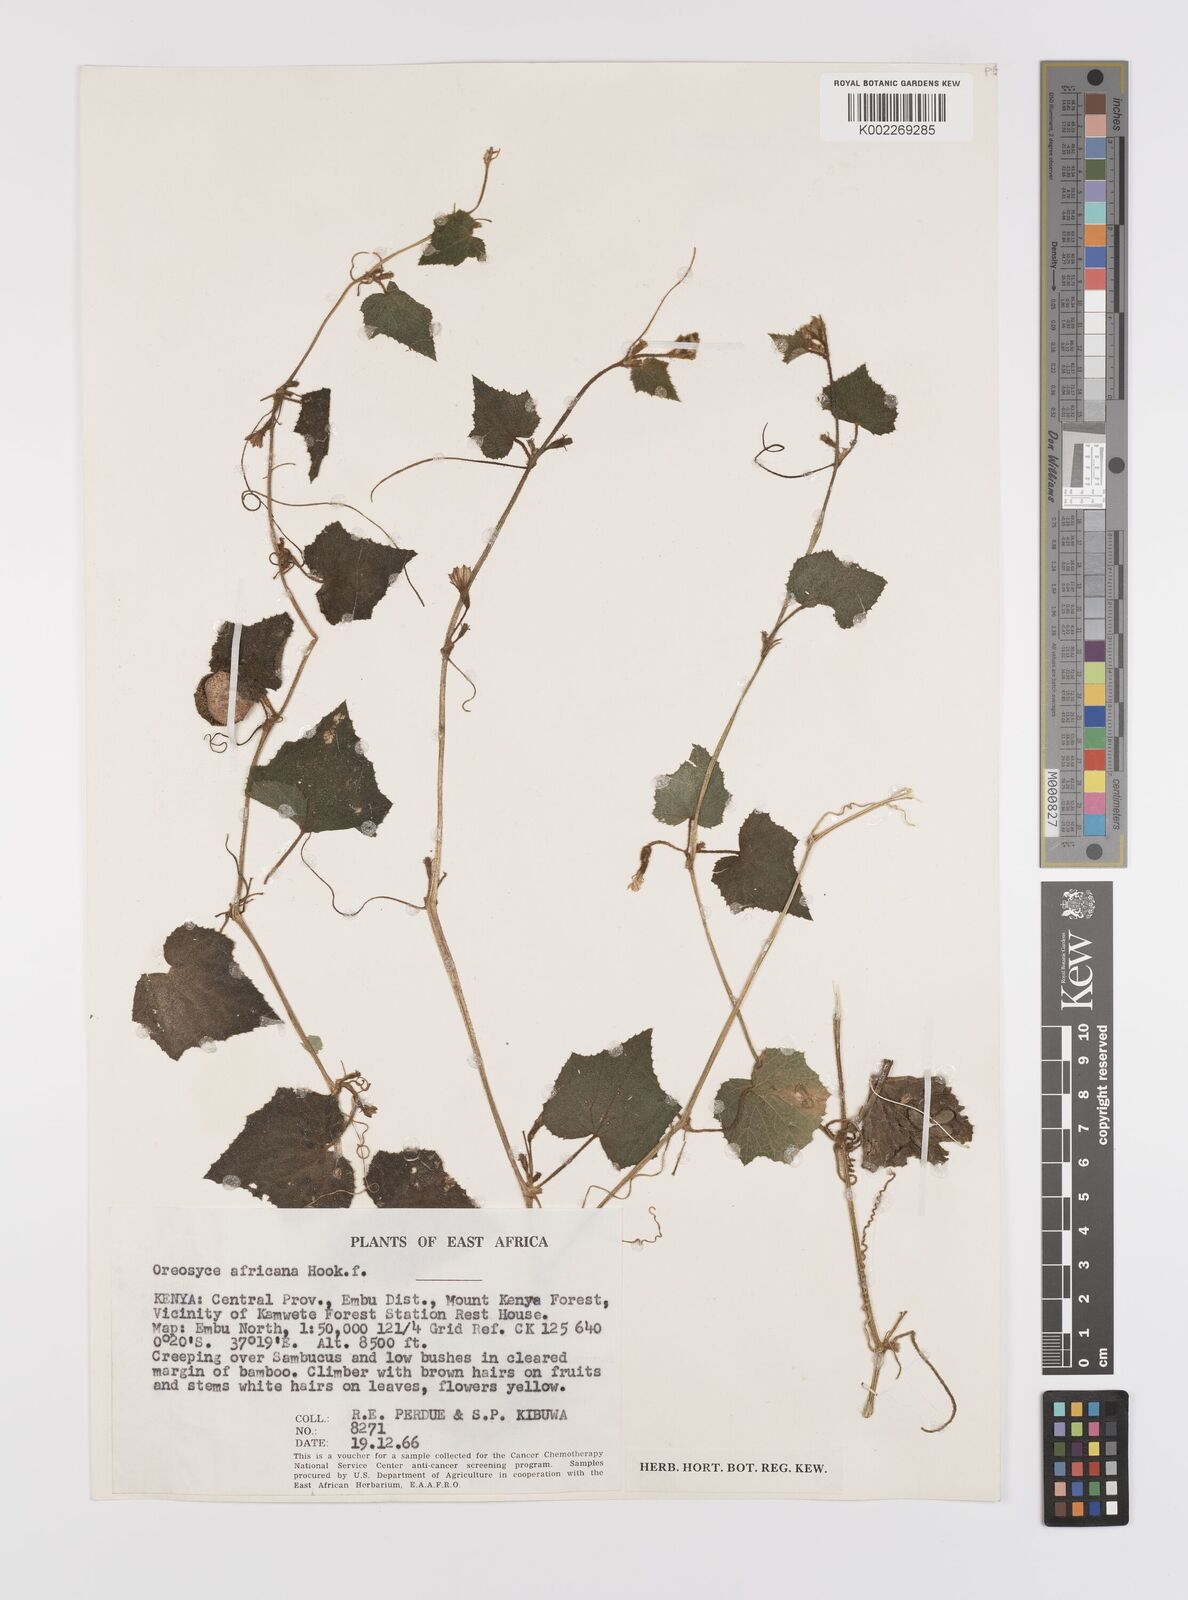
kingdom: Plantae
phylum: Tracheophyta
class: Magnoliopsida
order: Cucurbitales
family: Cucurbitaceae
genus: Cucumis
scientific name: Cucumis oreosyce
